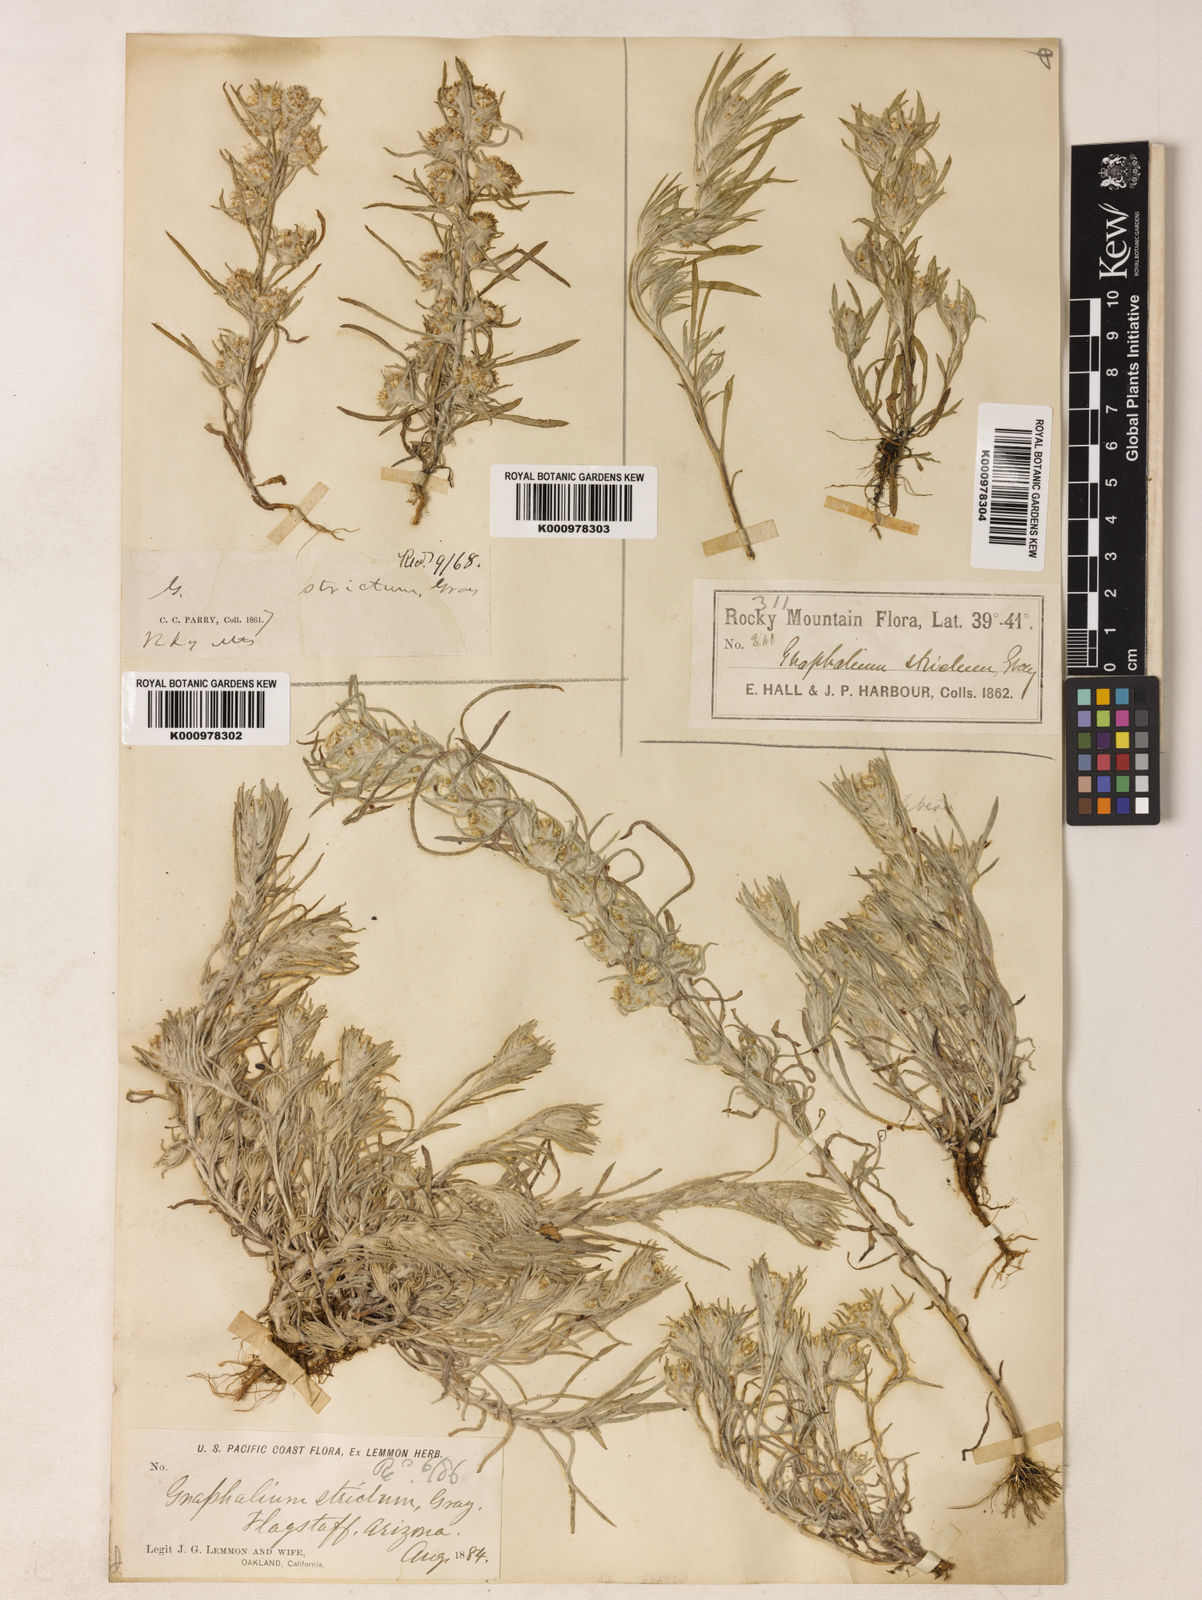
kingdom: Plantae
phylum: Tracheophyta
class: Magnoliopsida
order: Asterales
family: Asteraceae
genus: Gnaphalium
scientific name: Gnaphalium exilifolium
